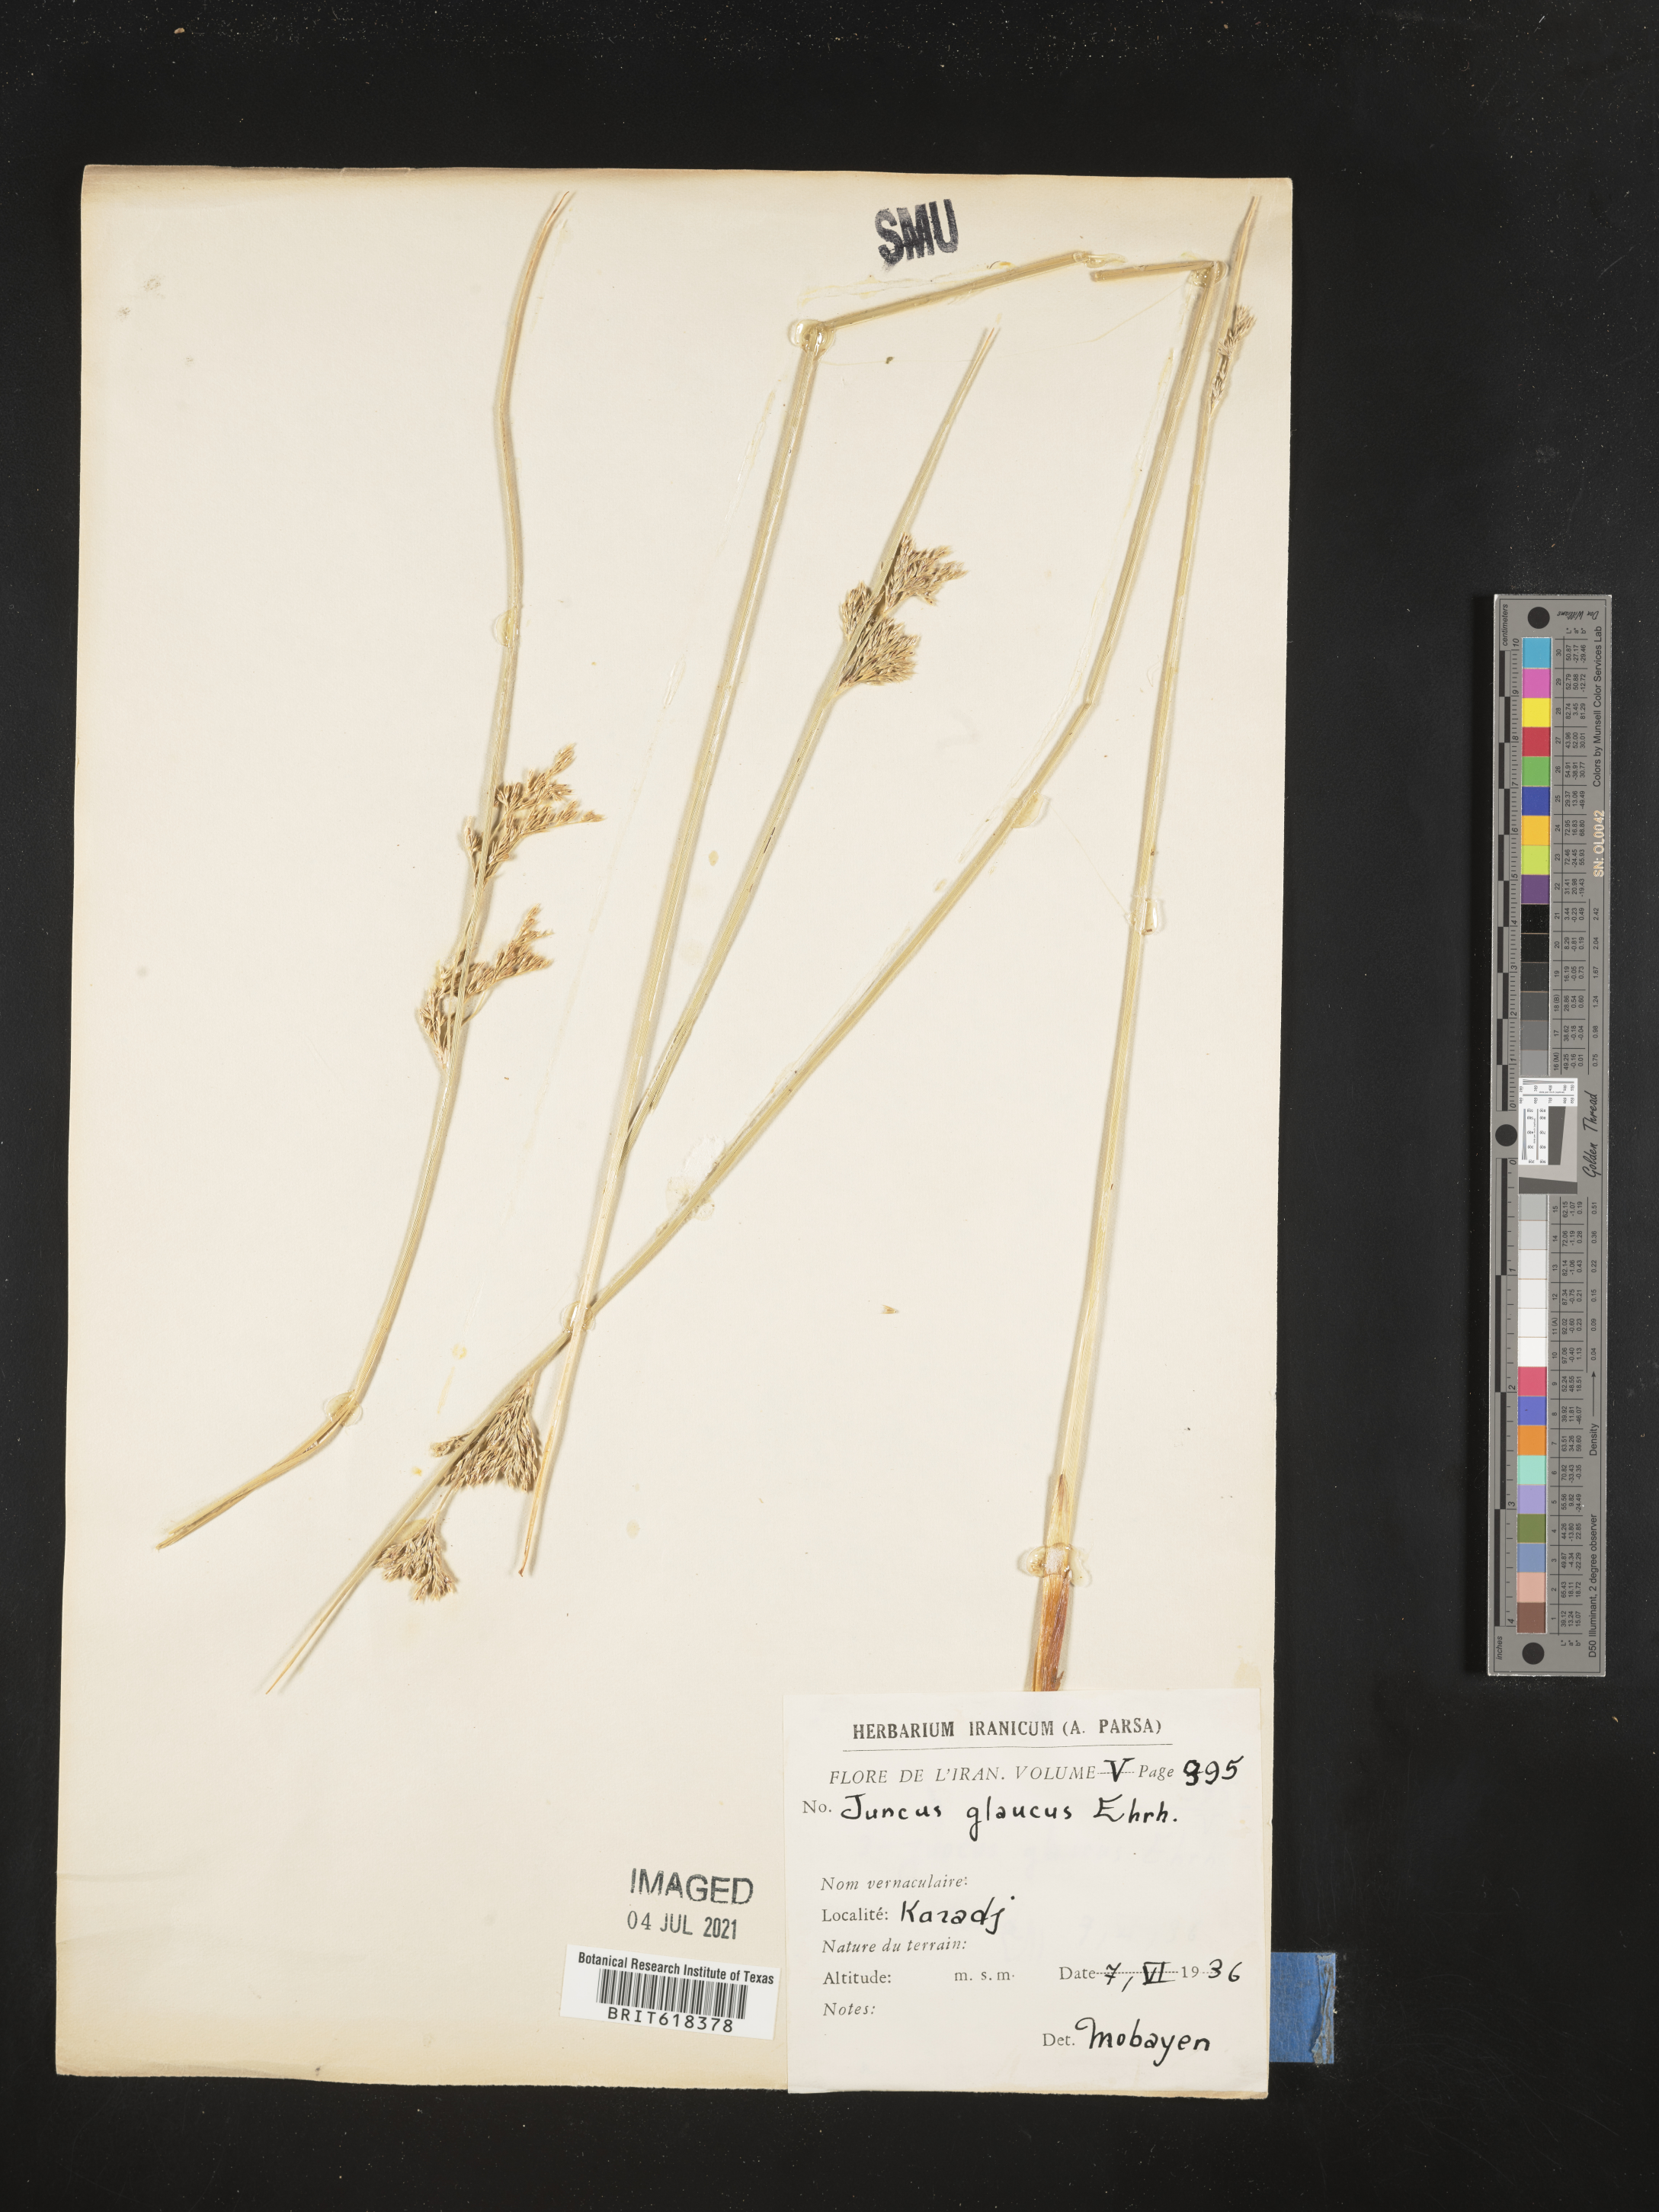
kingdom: Plantae
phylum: Tracheophyta
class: Liliopsida
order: Poales
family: Juncaceae
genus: Juncus
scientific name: Juncus glaucus
